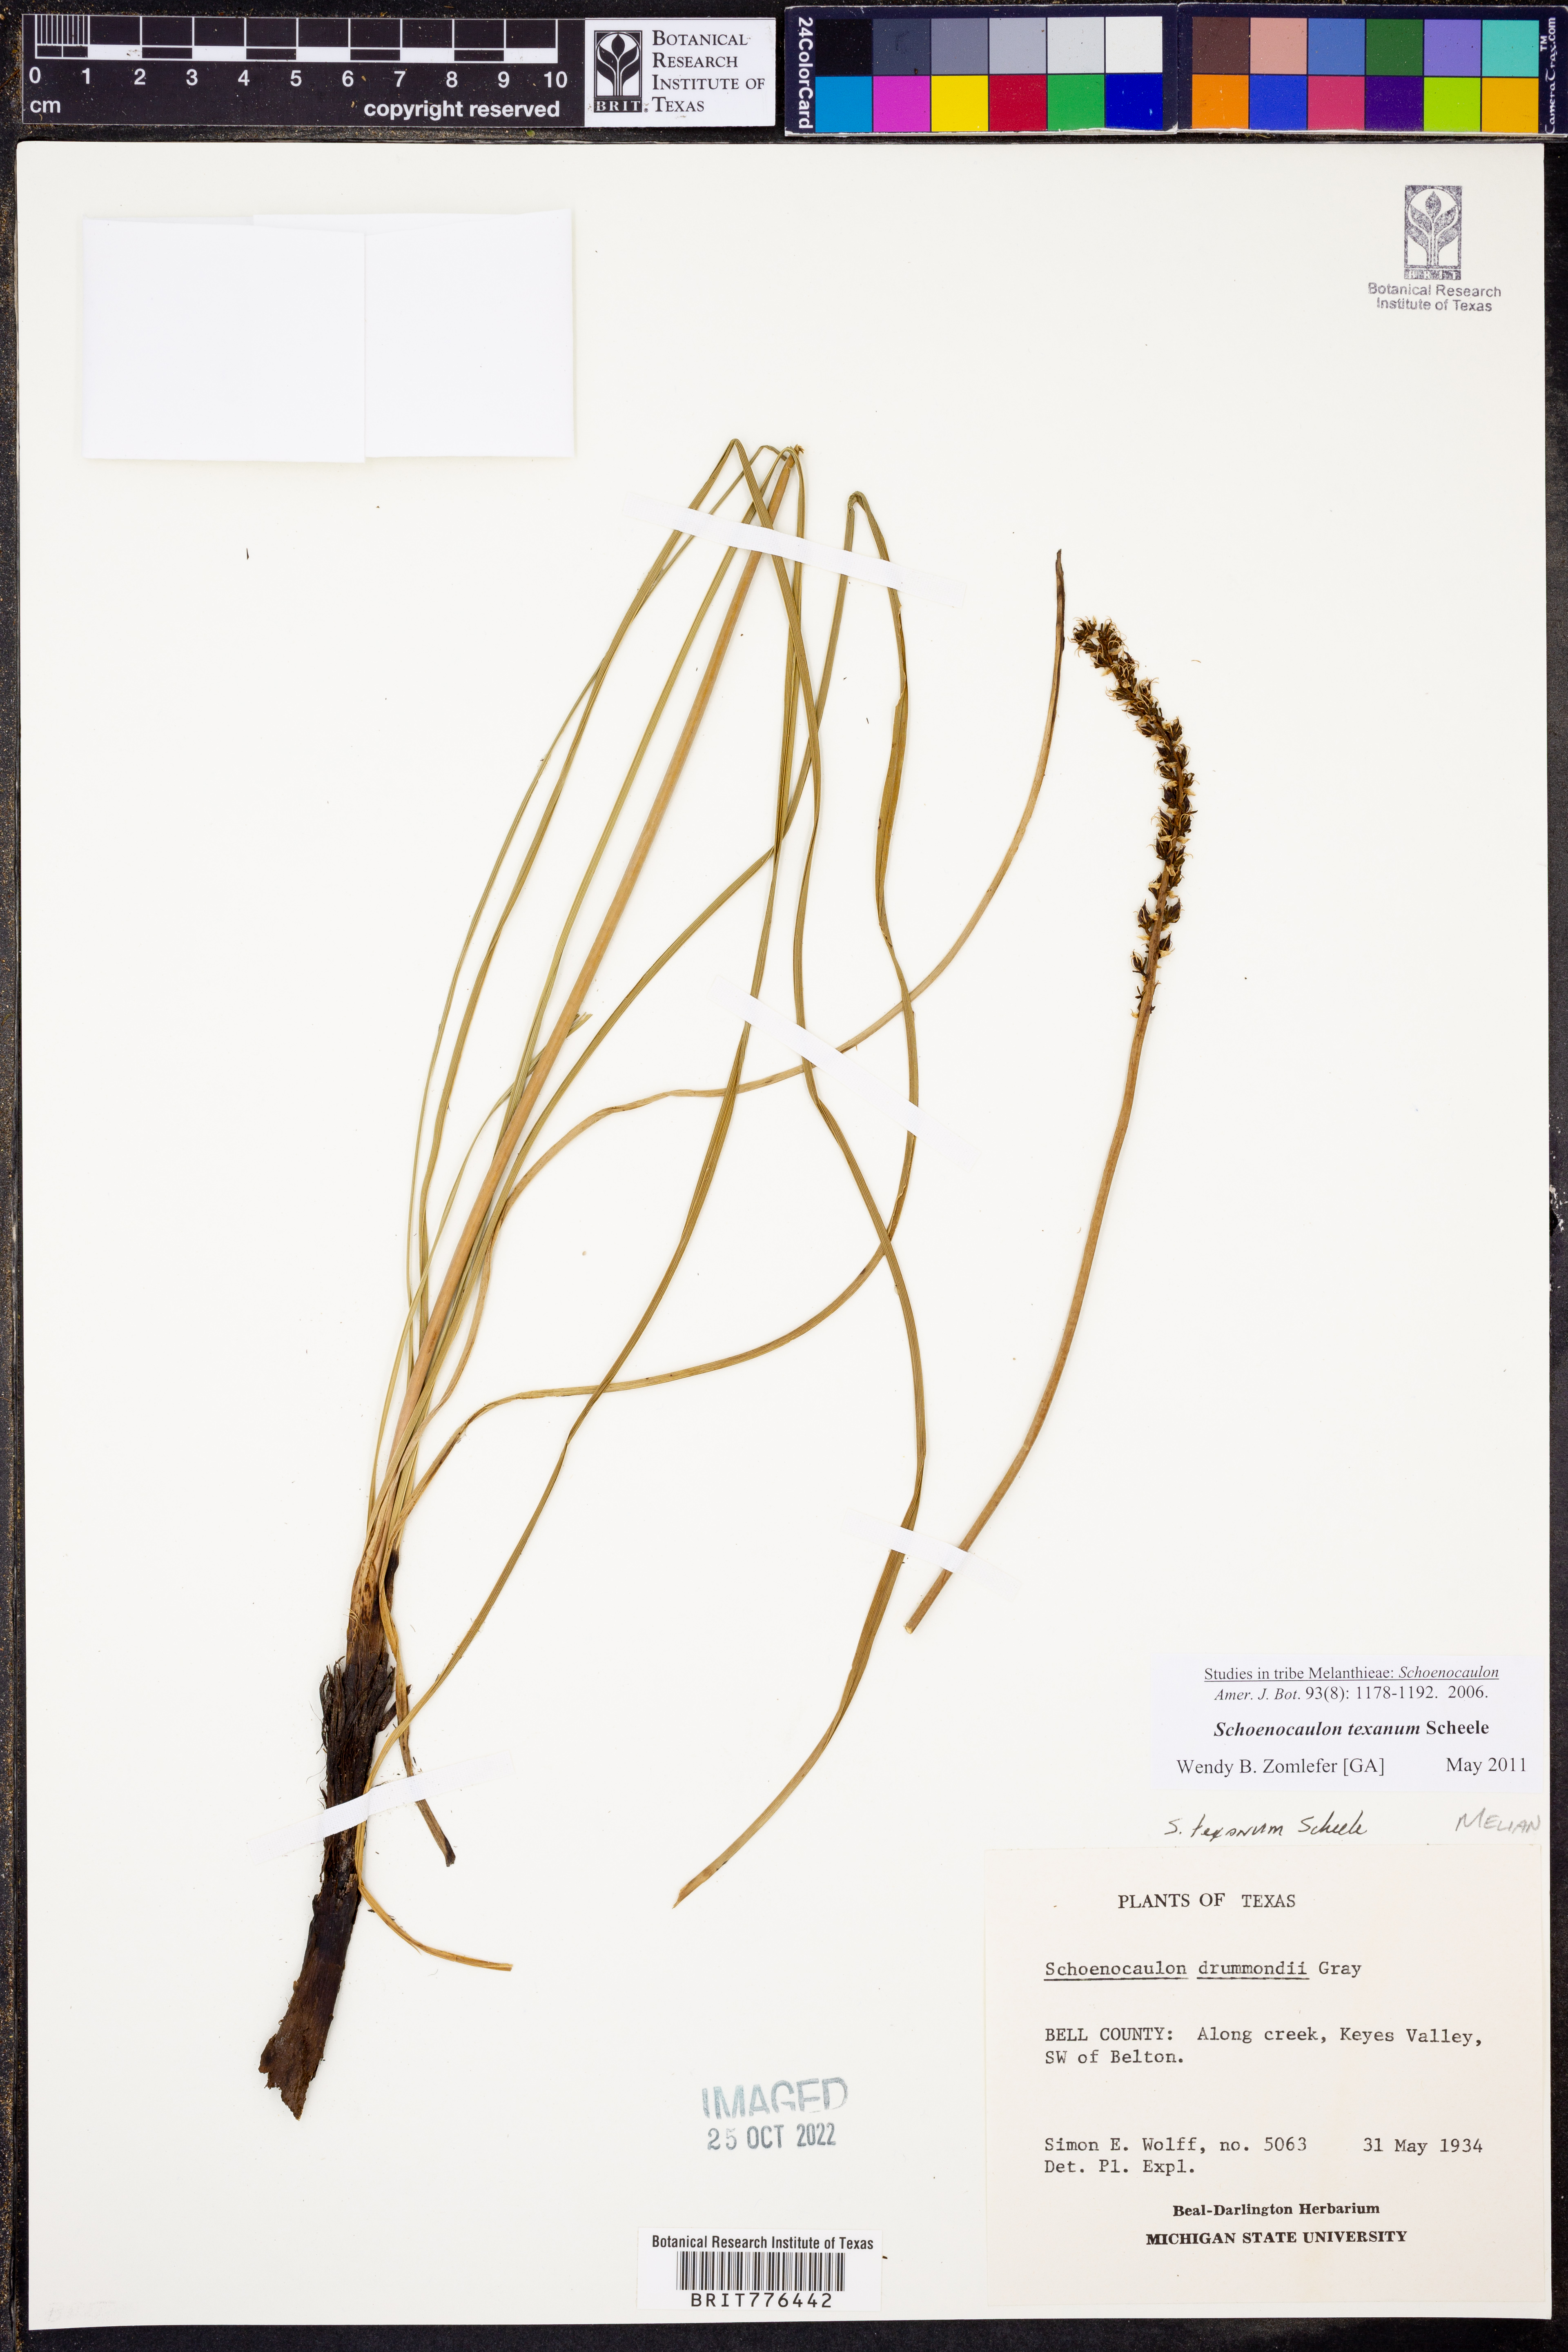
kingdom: Plantae
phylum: Tracheophyta
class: Liliopsida
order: Liliales
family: Melanthiaceae
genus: Schoenocaulon
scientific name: Schoenocaulon texanum
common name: Texas feather-shank
